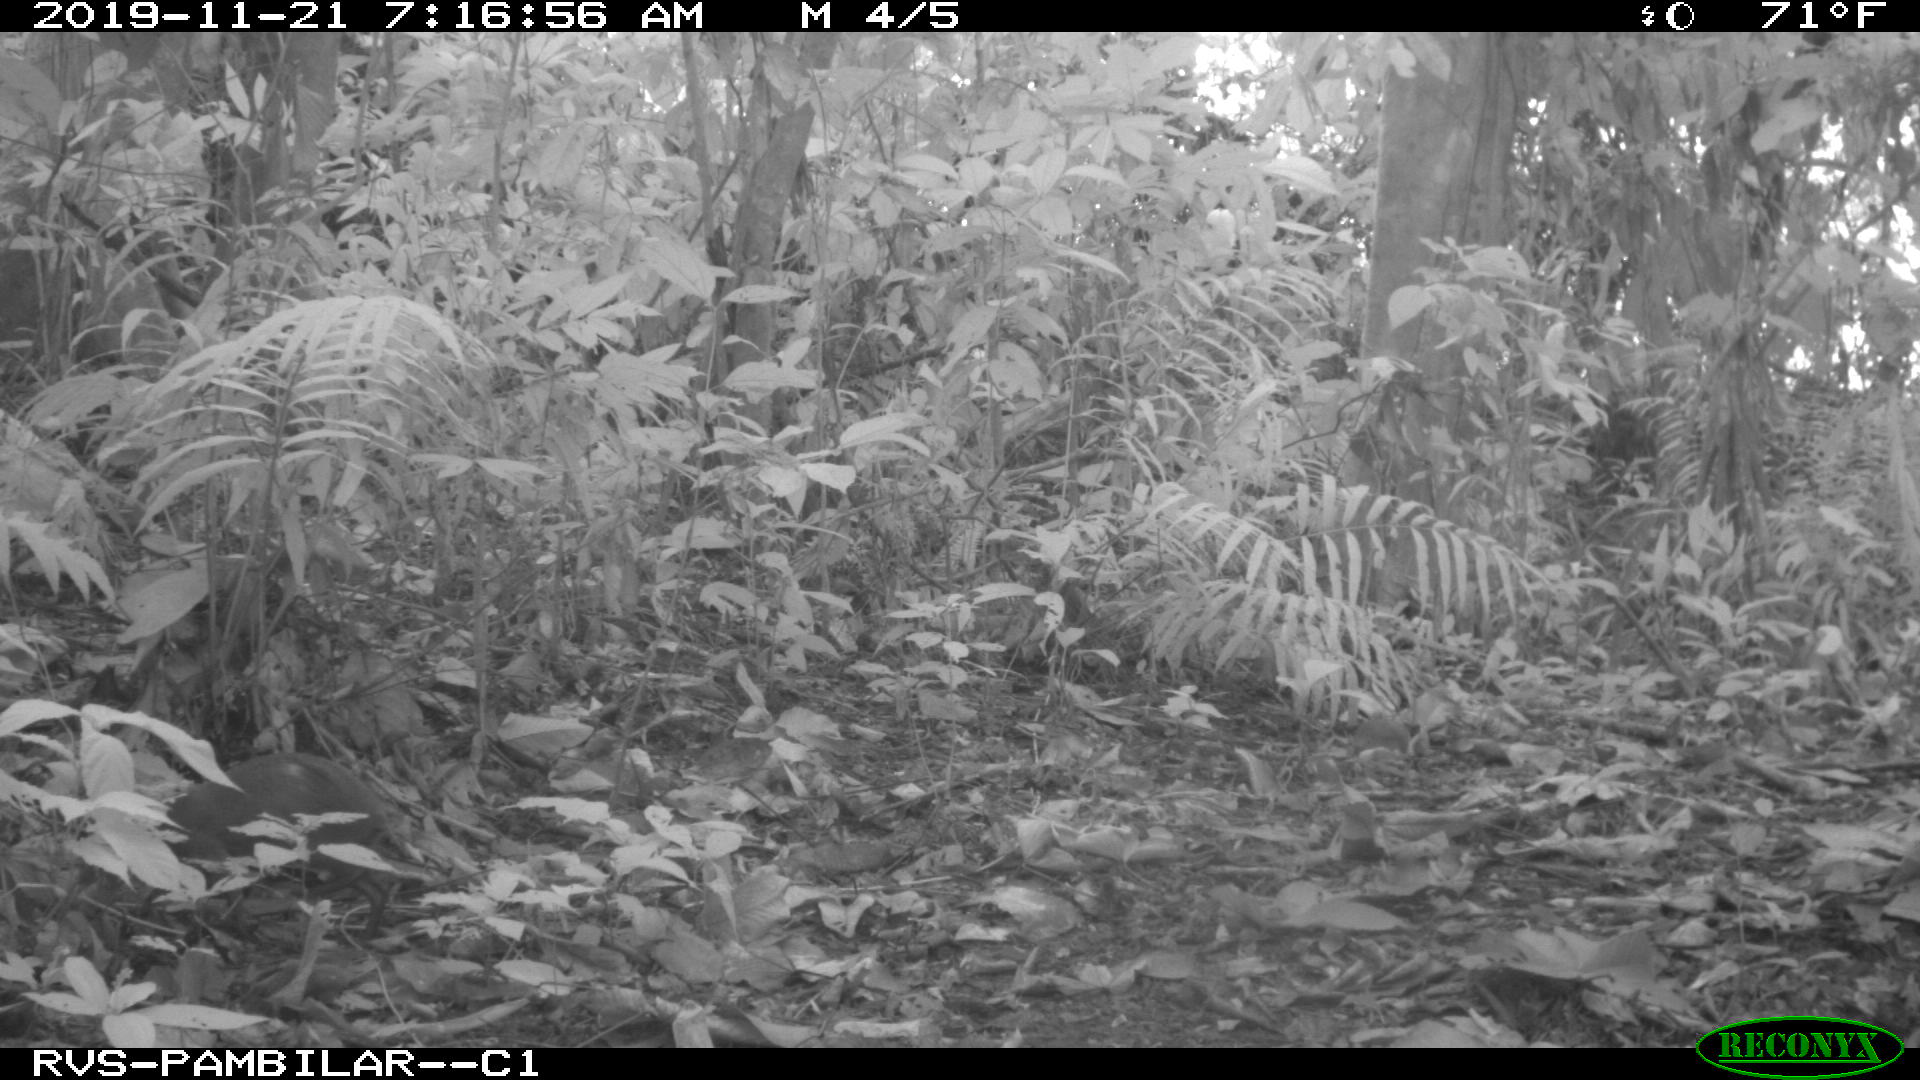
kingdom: Animalia
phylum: Chordata
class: Mammalia
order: Rodentia
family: Dasyproctidae
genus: Dasyprocta
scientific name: Dasyprocta punctata
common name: Central american agouti
